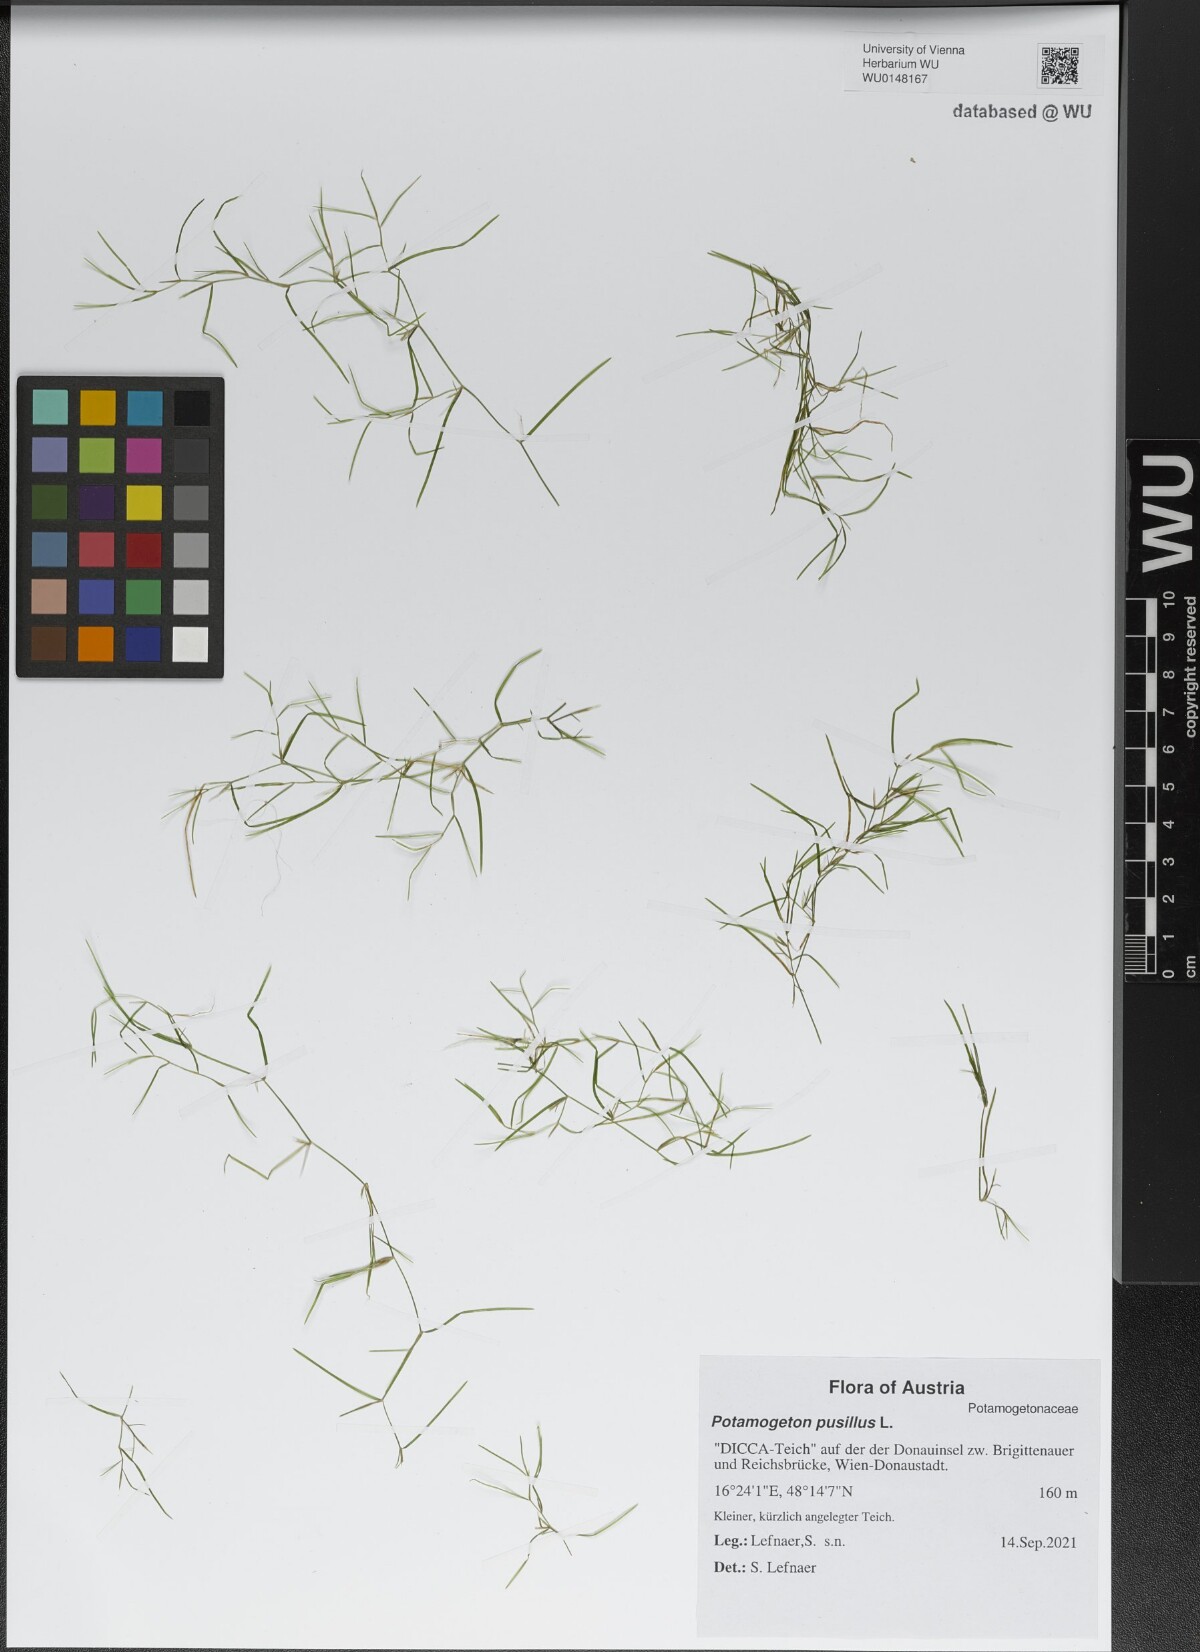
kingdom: Plantae
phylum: Tracheophyta
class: Liliopsida
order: Alismatales
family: Potamogetonaceae
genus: Potamogeton
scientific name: Potamogeton pusillus
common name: Lesser pondweed
